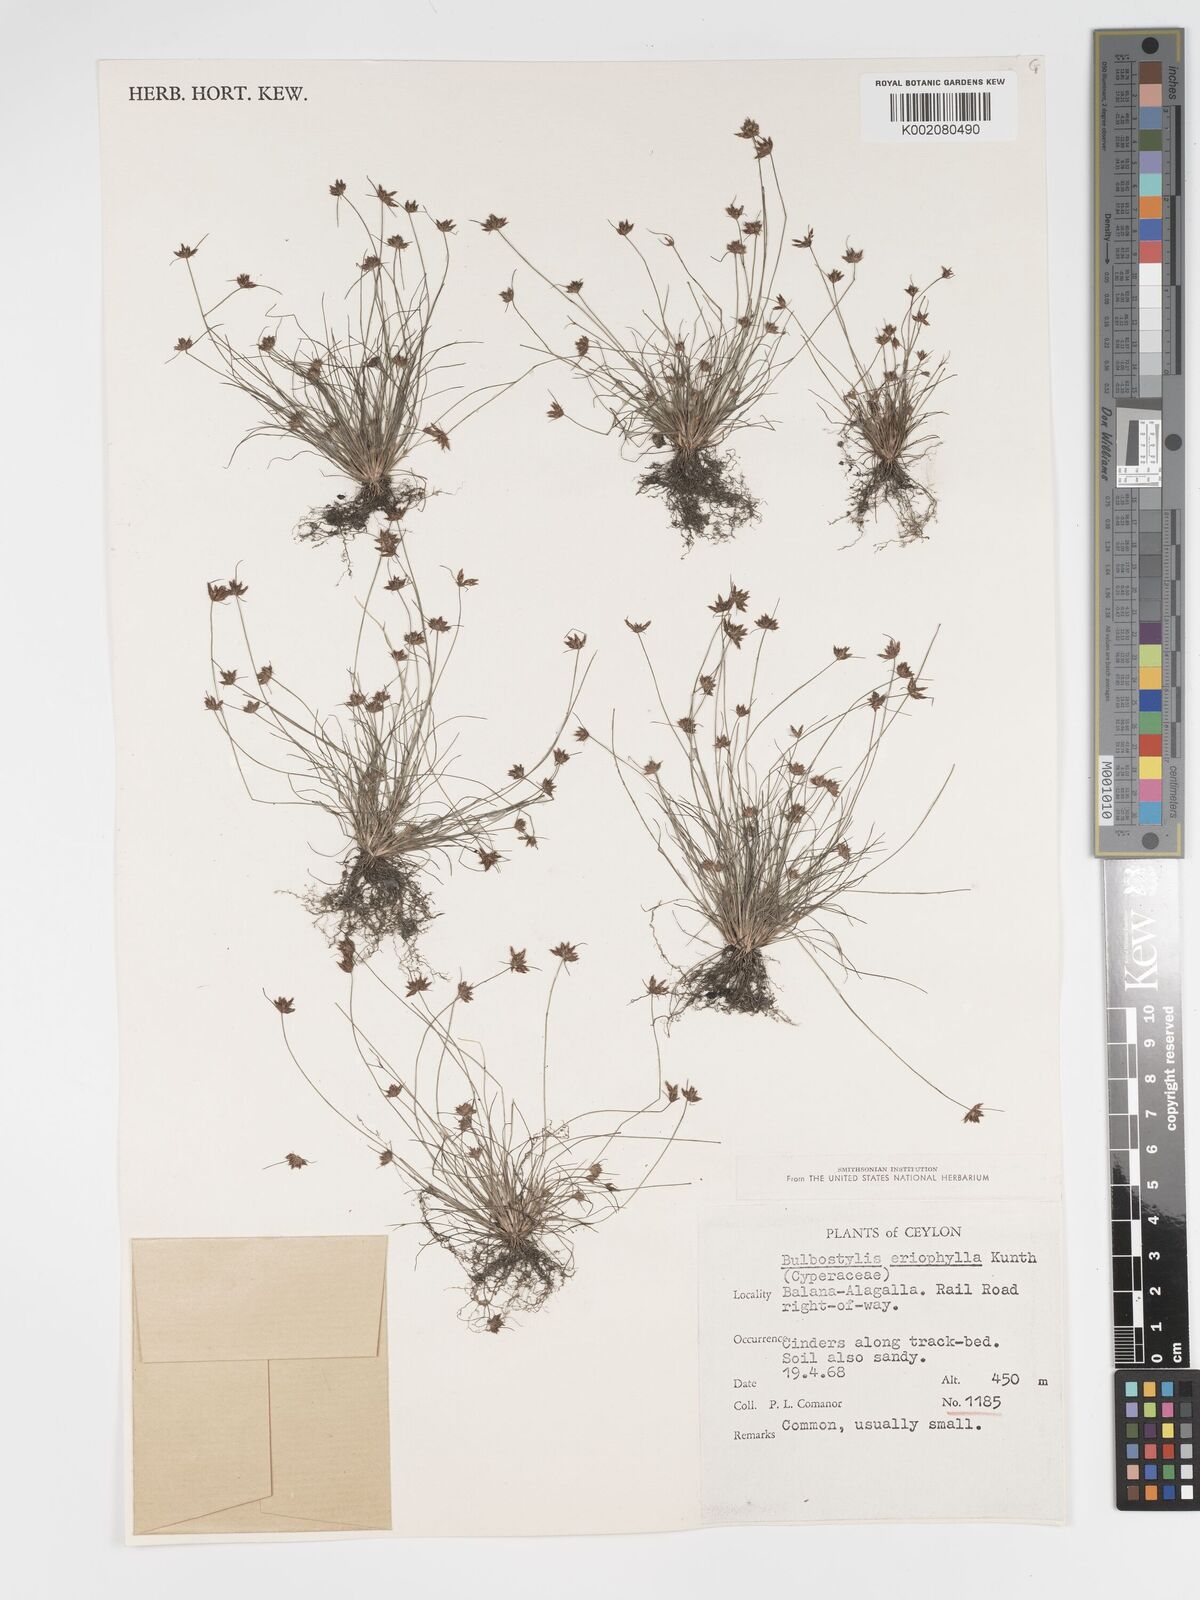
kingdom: Plantae
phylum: Tracheophyta
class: Liliopsida
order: Poales
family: Cyperaceae
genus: Bulbostylis
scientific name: Bulbostylis barbata
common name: Watergrass
